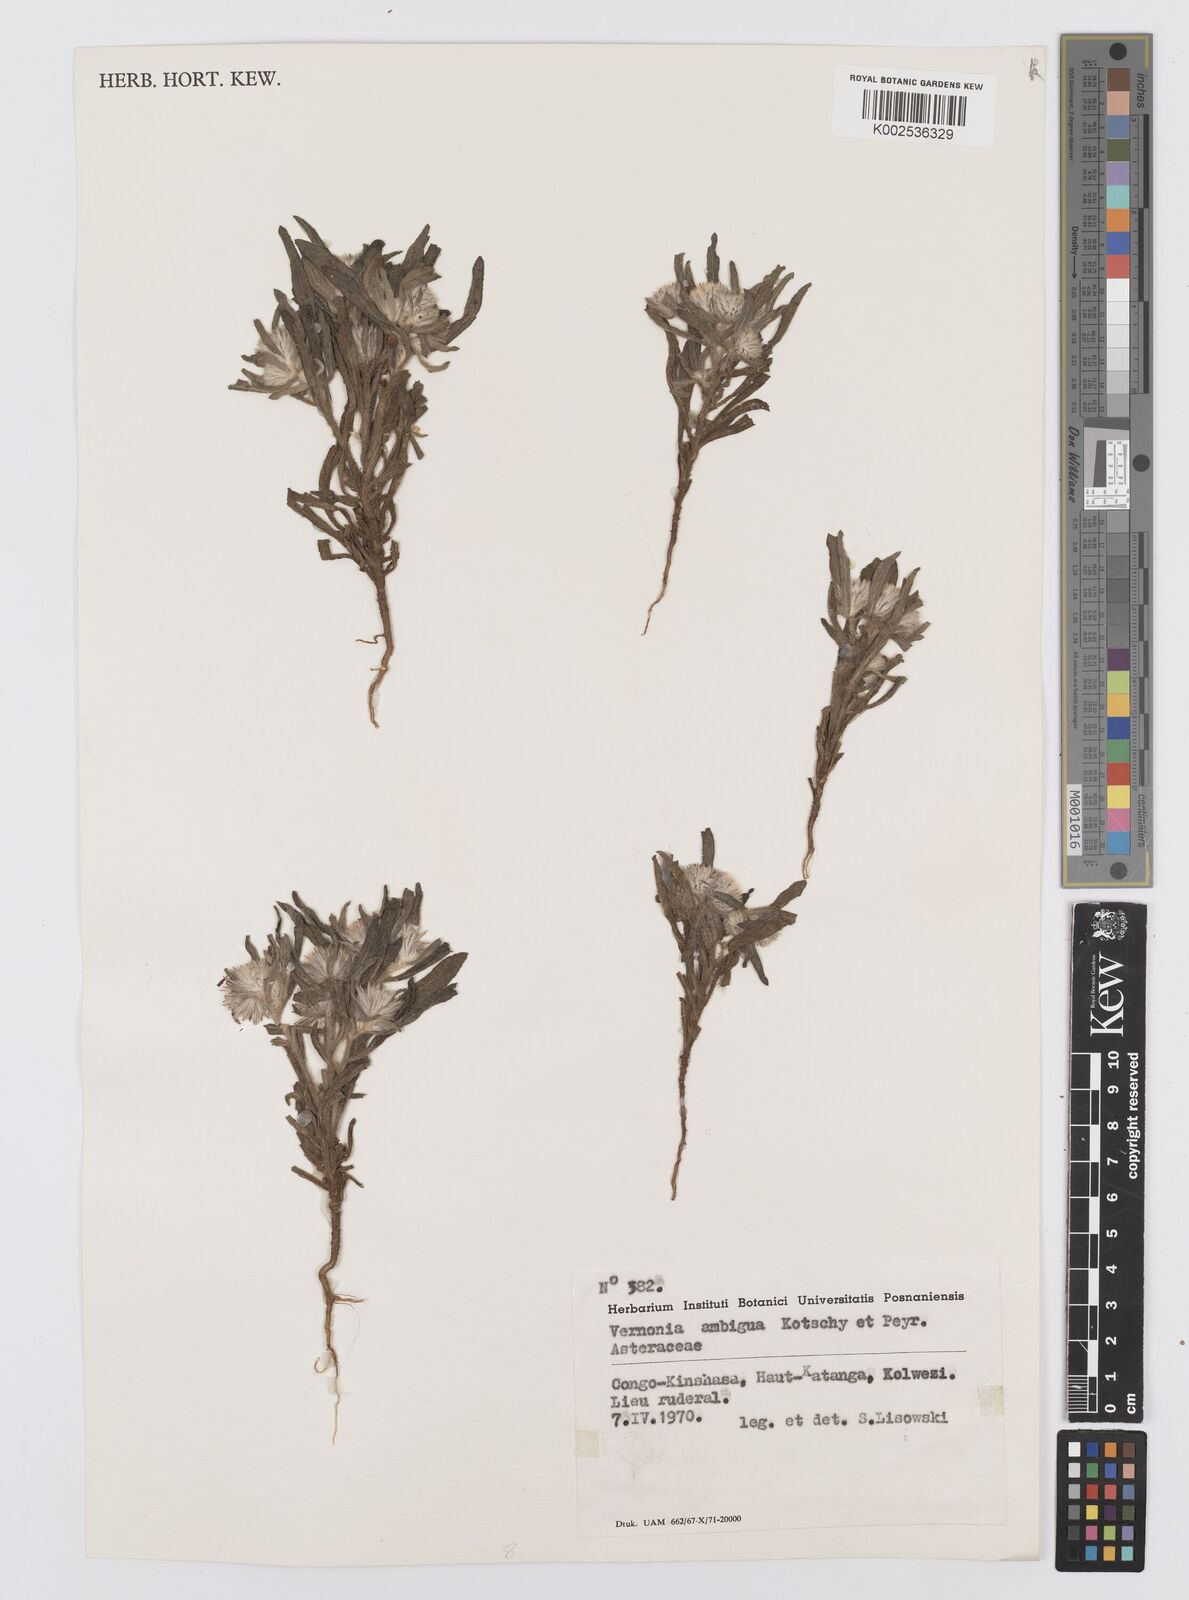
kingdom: Plantae
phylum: Tracheophyta
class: Magnoliopsida
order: Asterales
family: Asteraceae
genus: Vernoniastrum
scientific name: Vernoniastrum ambiguum
